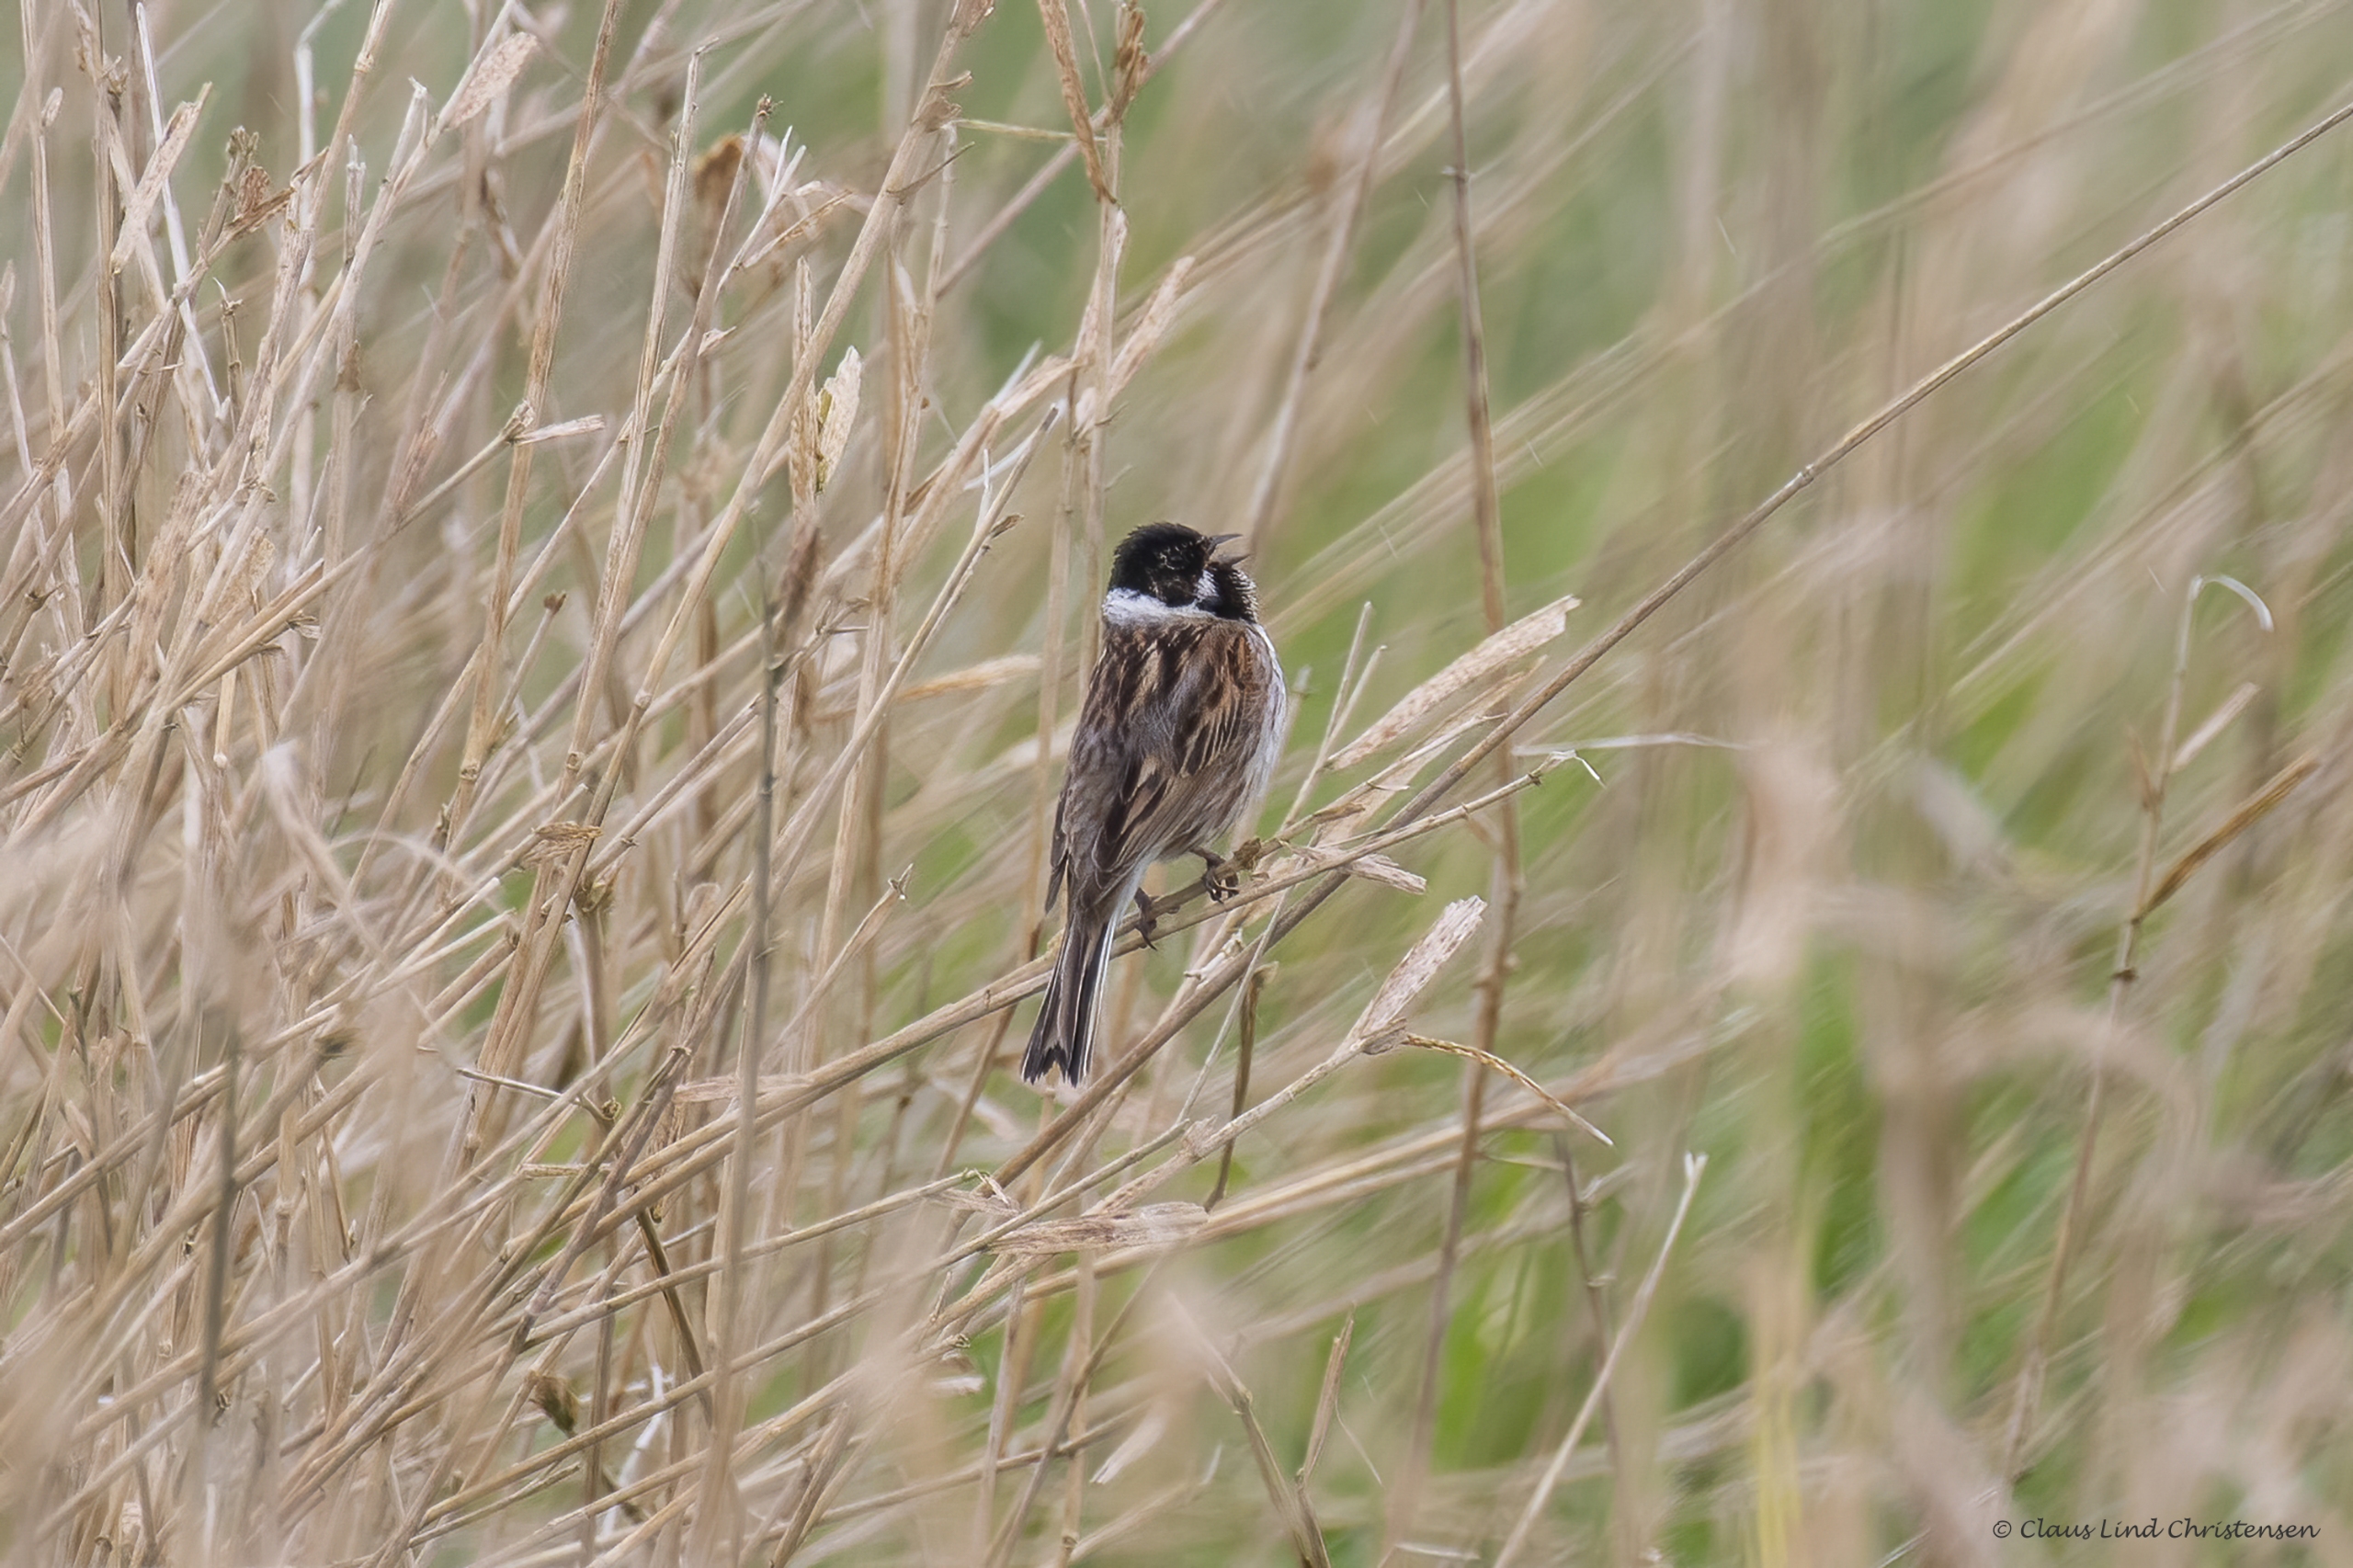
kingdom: Animalia
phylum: Chordata
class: Aves
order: Passeriformes
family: Emberizidae
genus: Emberiza
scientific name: Emberiza schoeniclus
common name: Rørspurv
